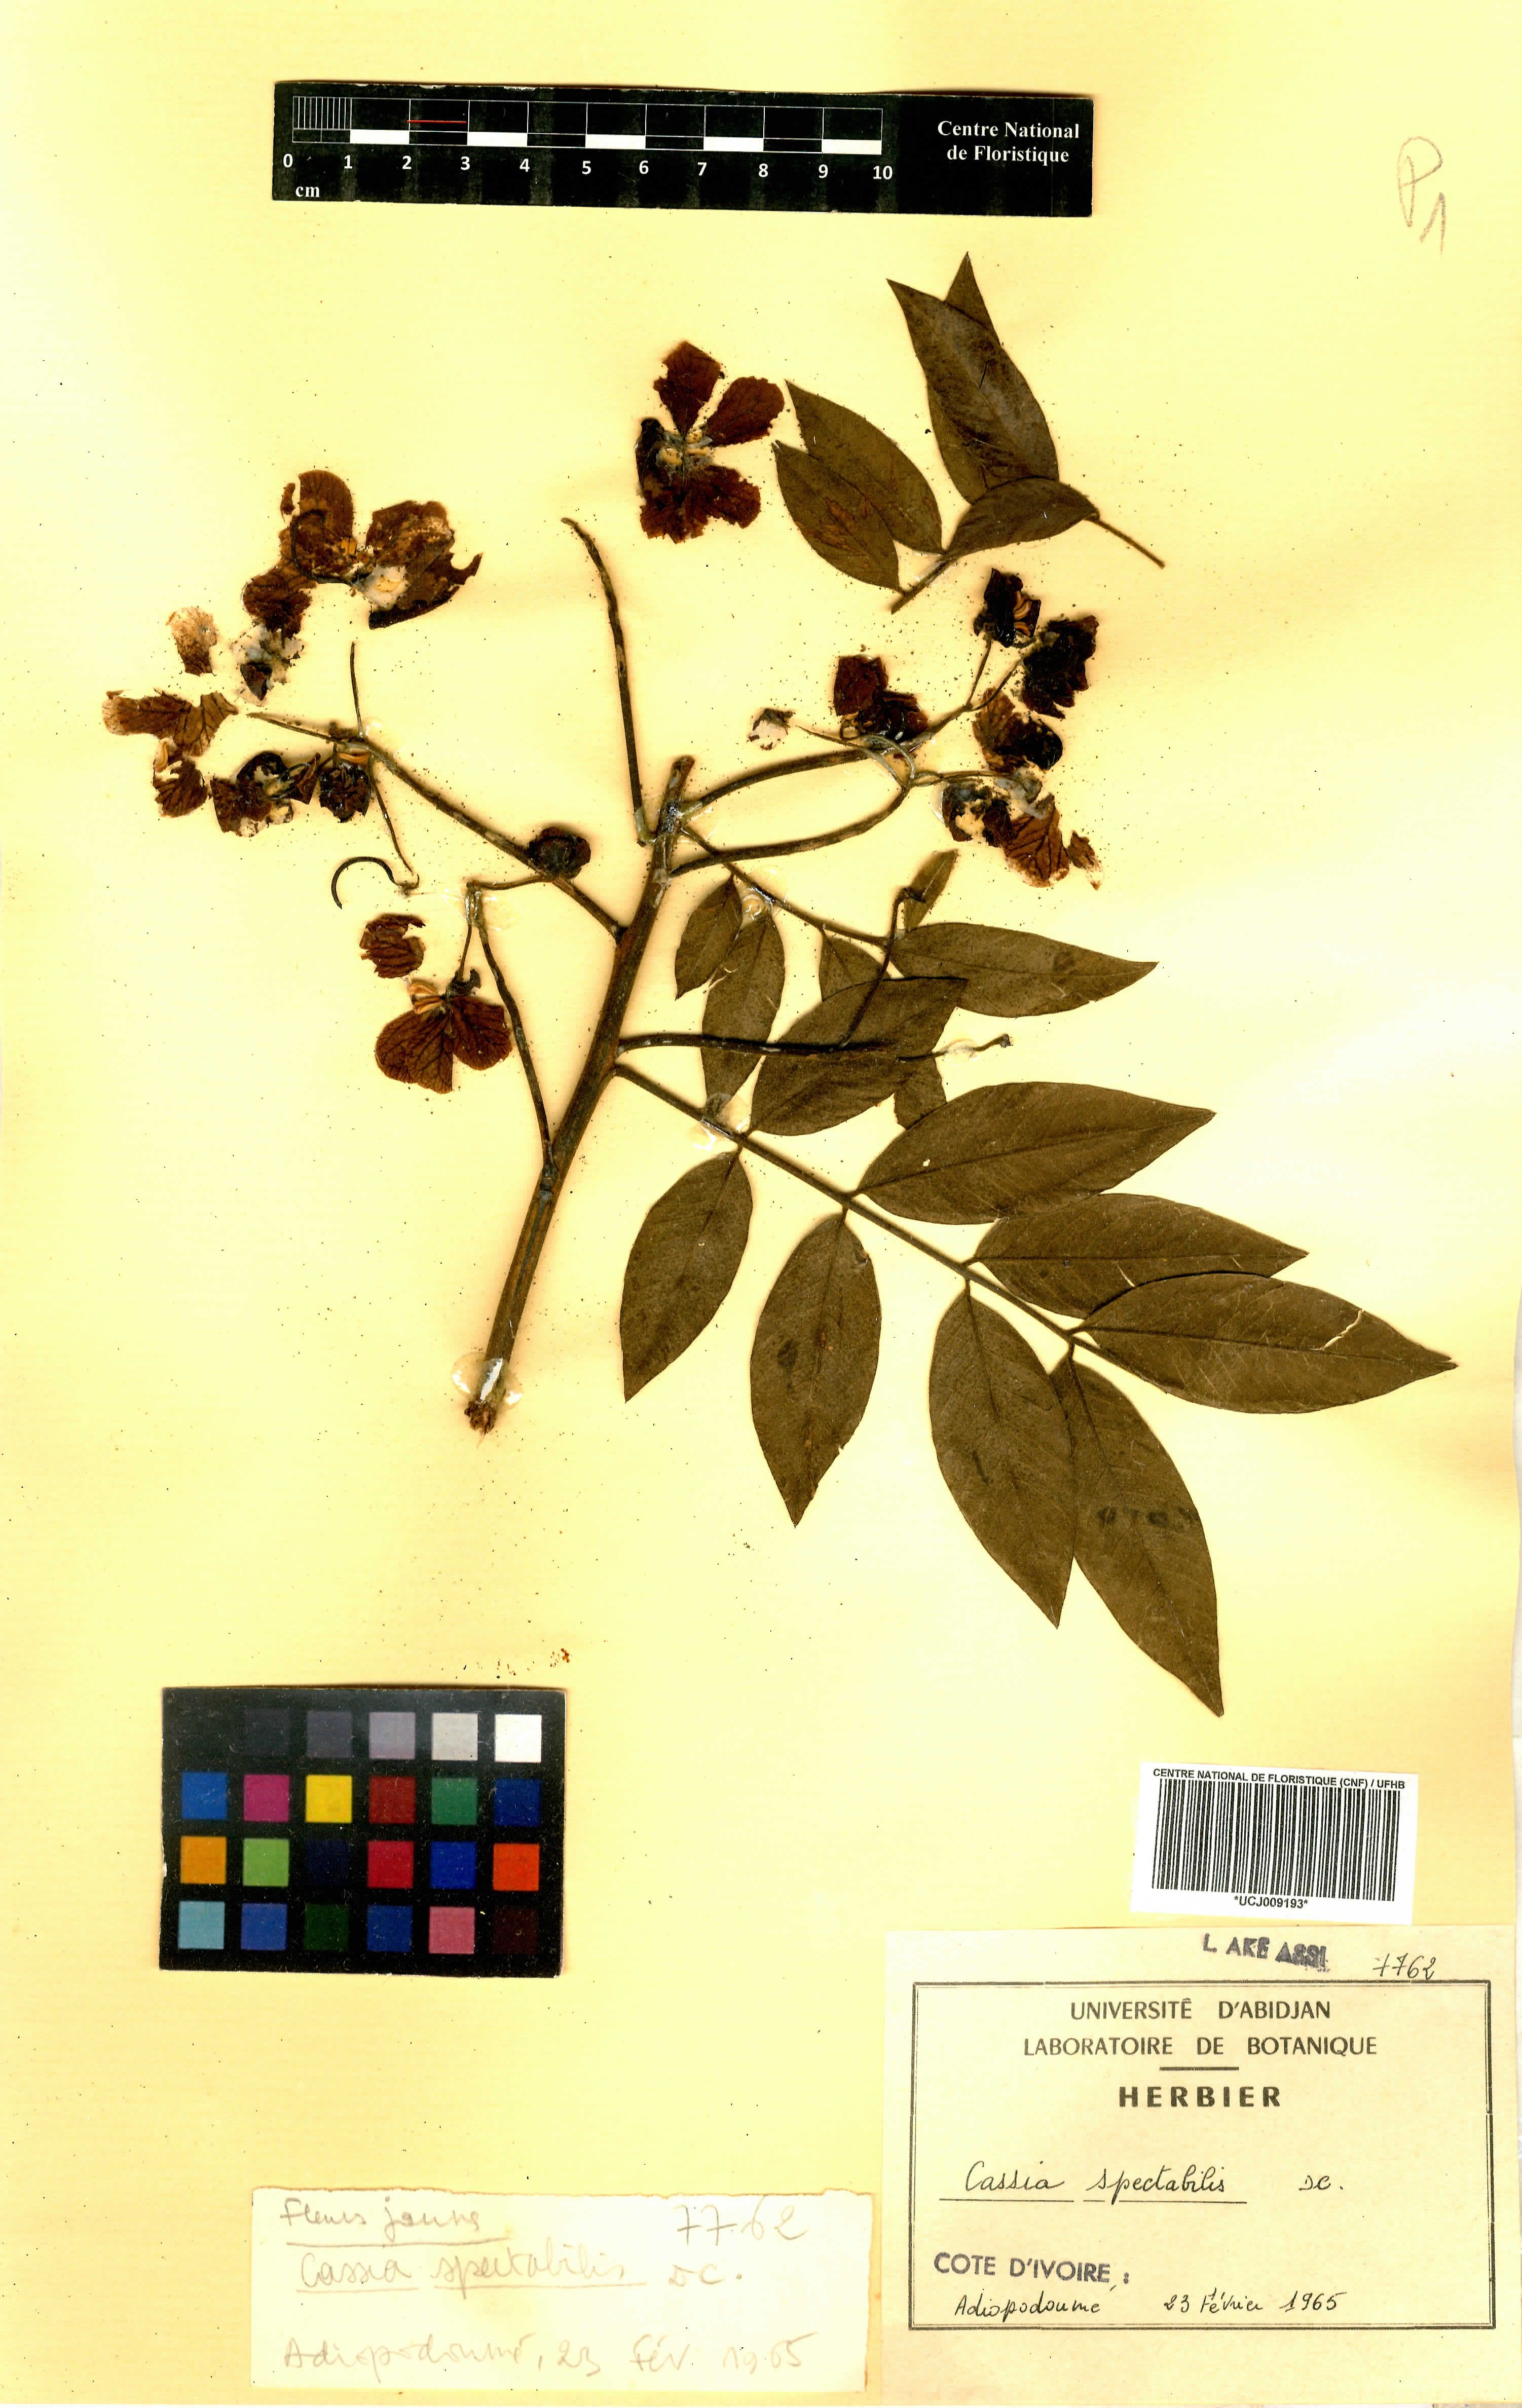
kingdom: Plantae
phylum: Tracheophyta
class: Magnoliopsida
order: Fabales
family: Fabaceae
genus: Senna
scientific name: Senna spectabilis
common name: Casia amarilla
